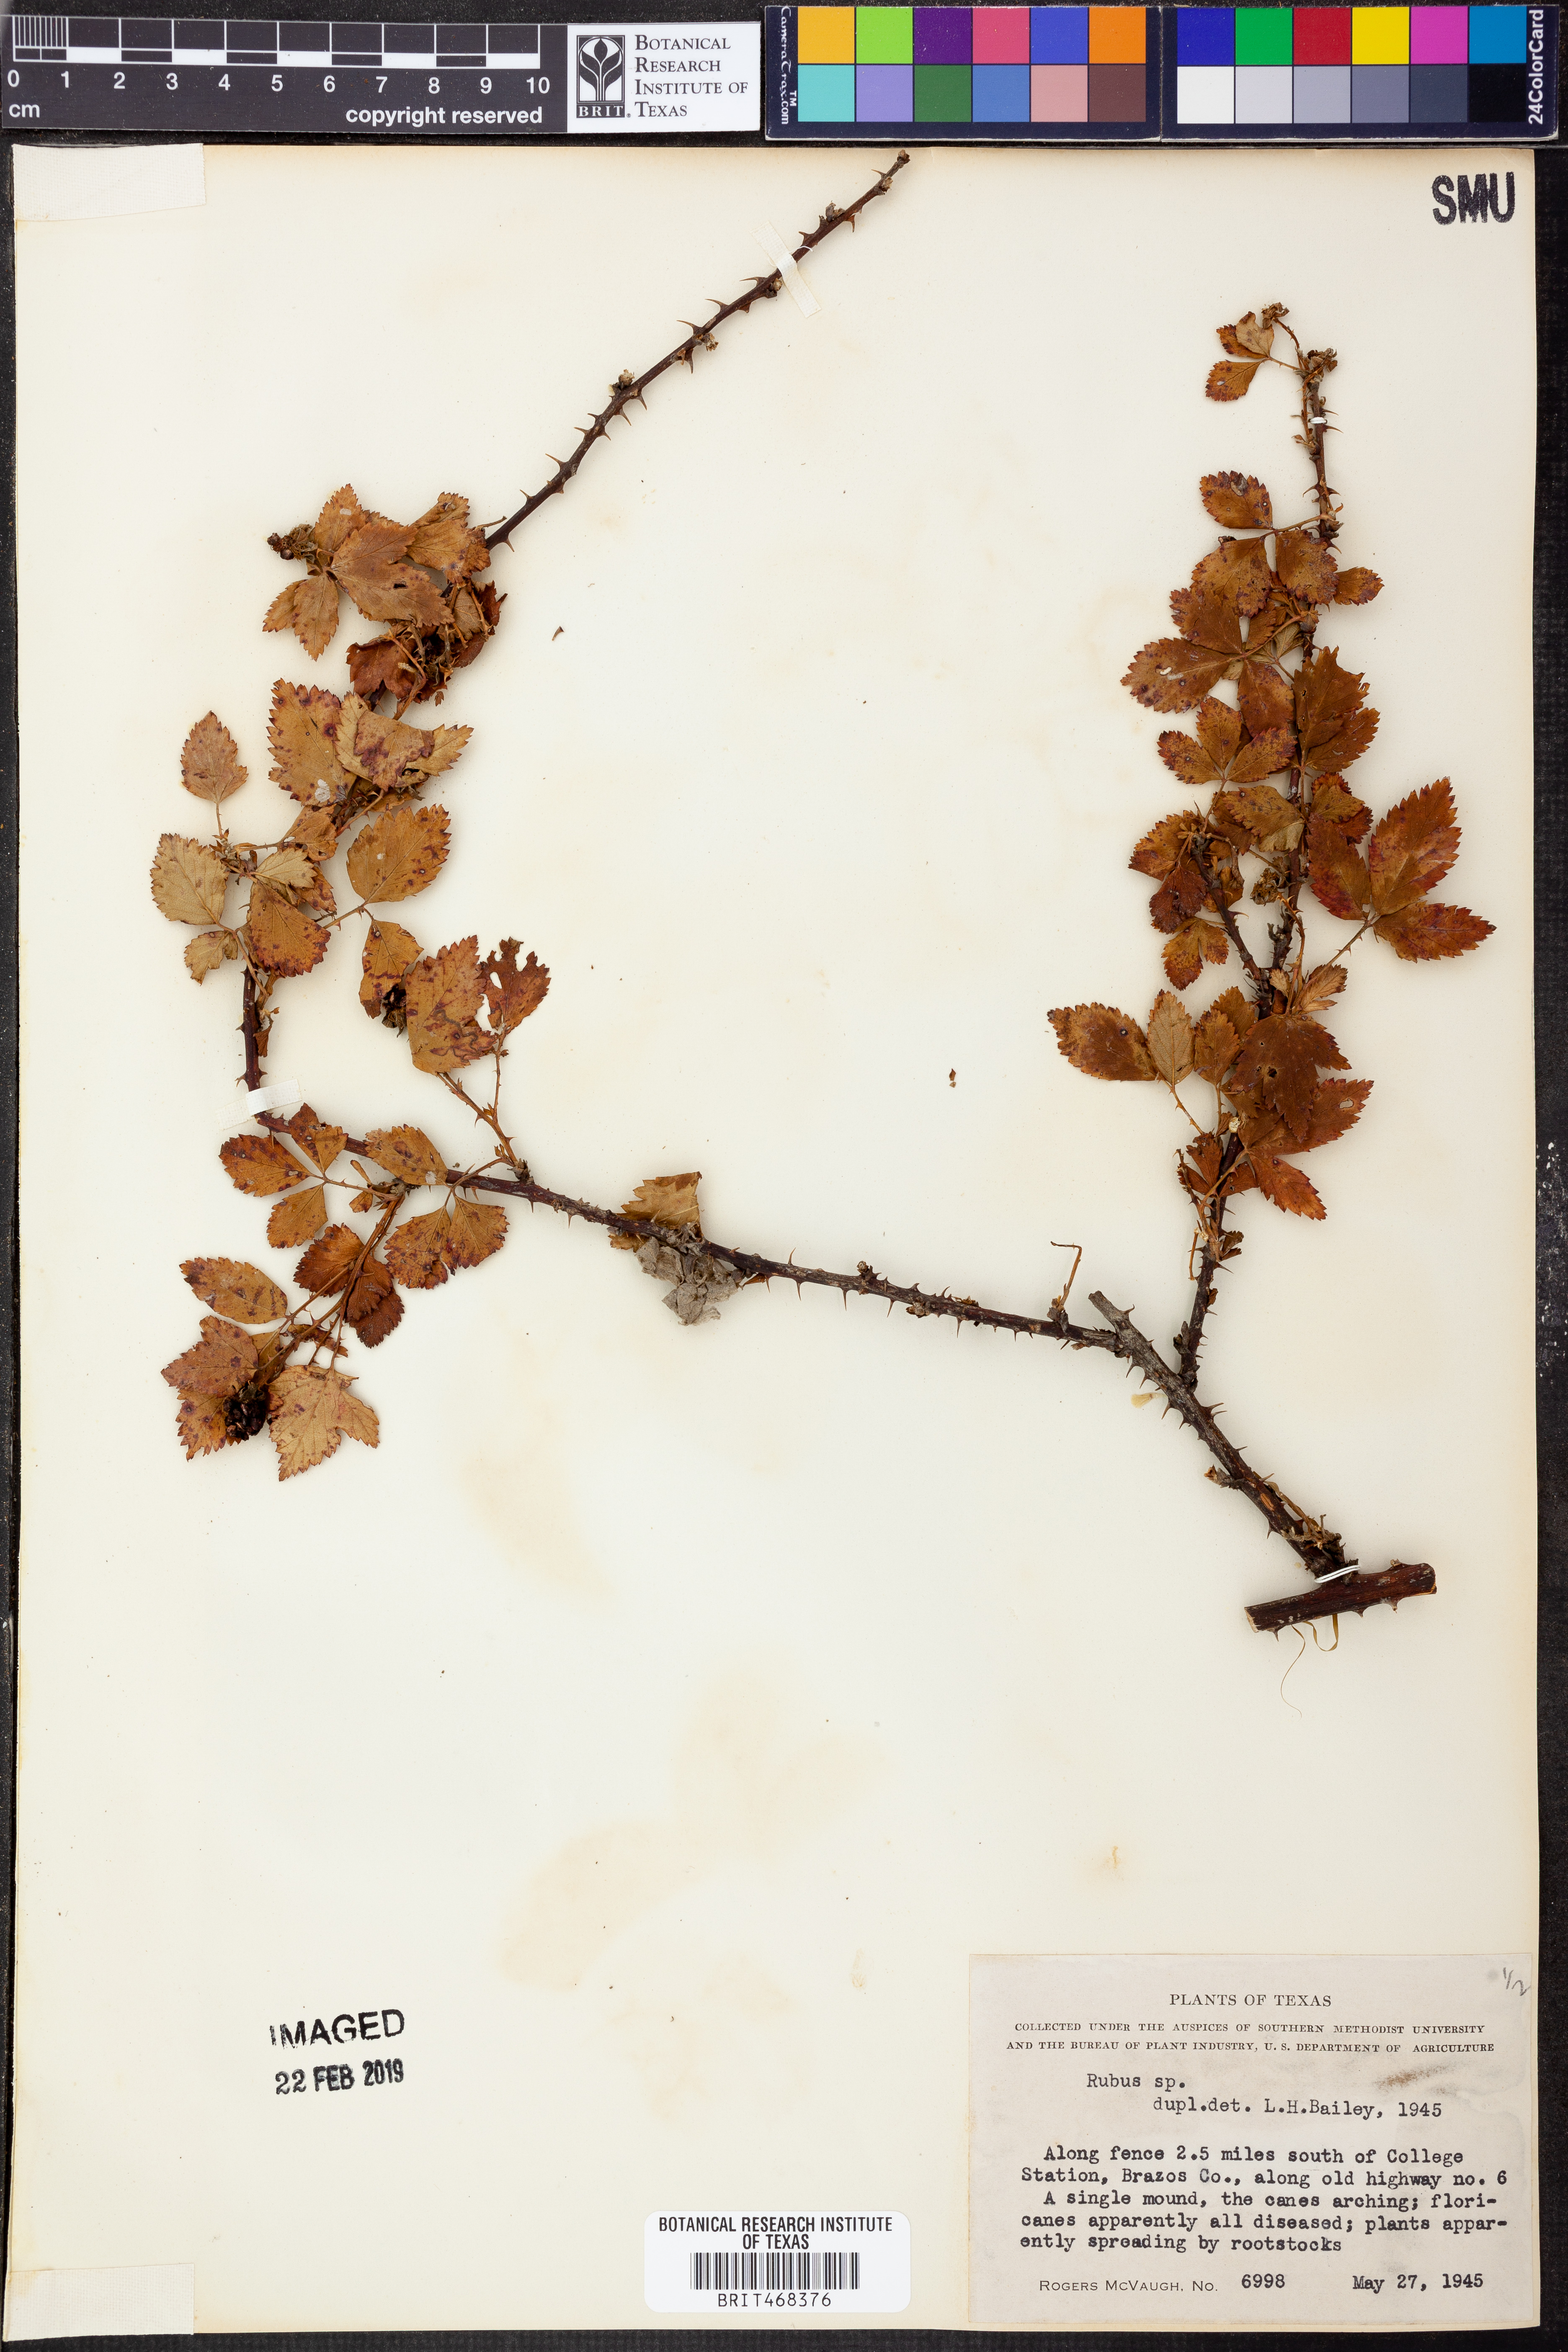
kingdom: Plantae
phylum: Tracheophyta
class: Magnoliopsida
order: Rosales
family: Rosaceae
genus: Rubus
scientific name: Rubus
